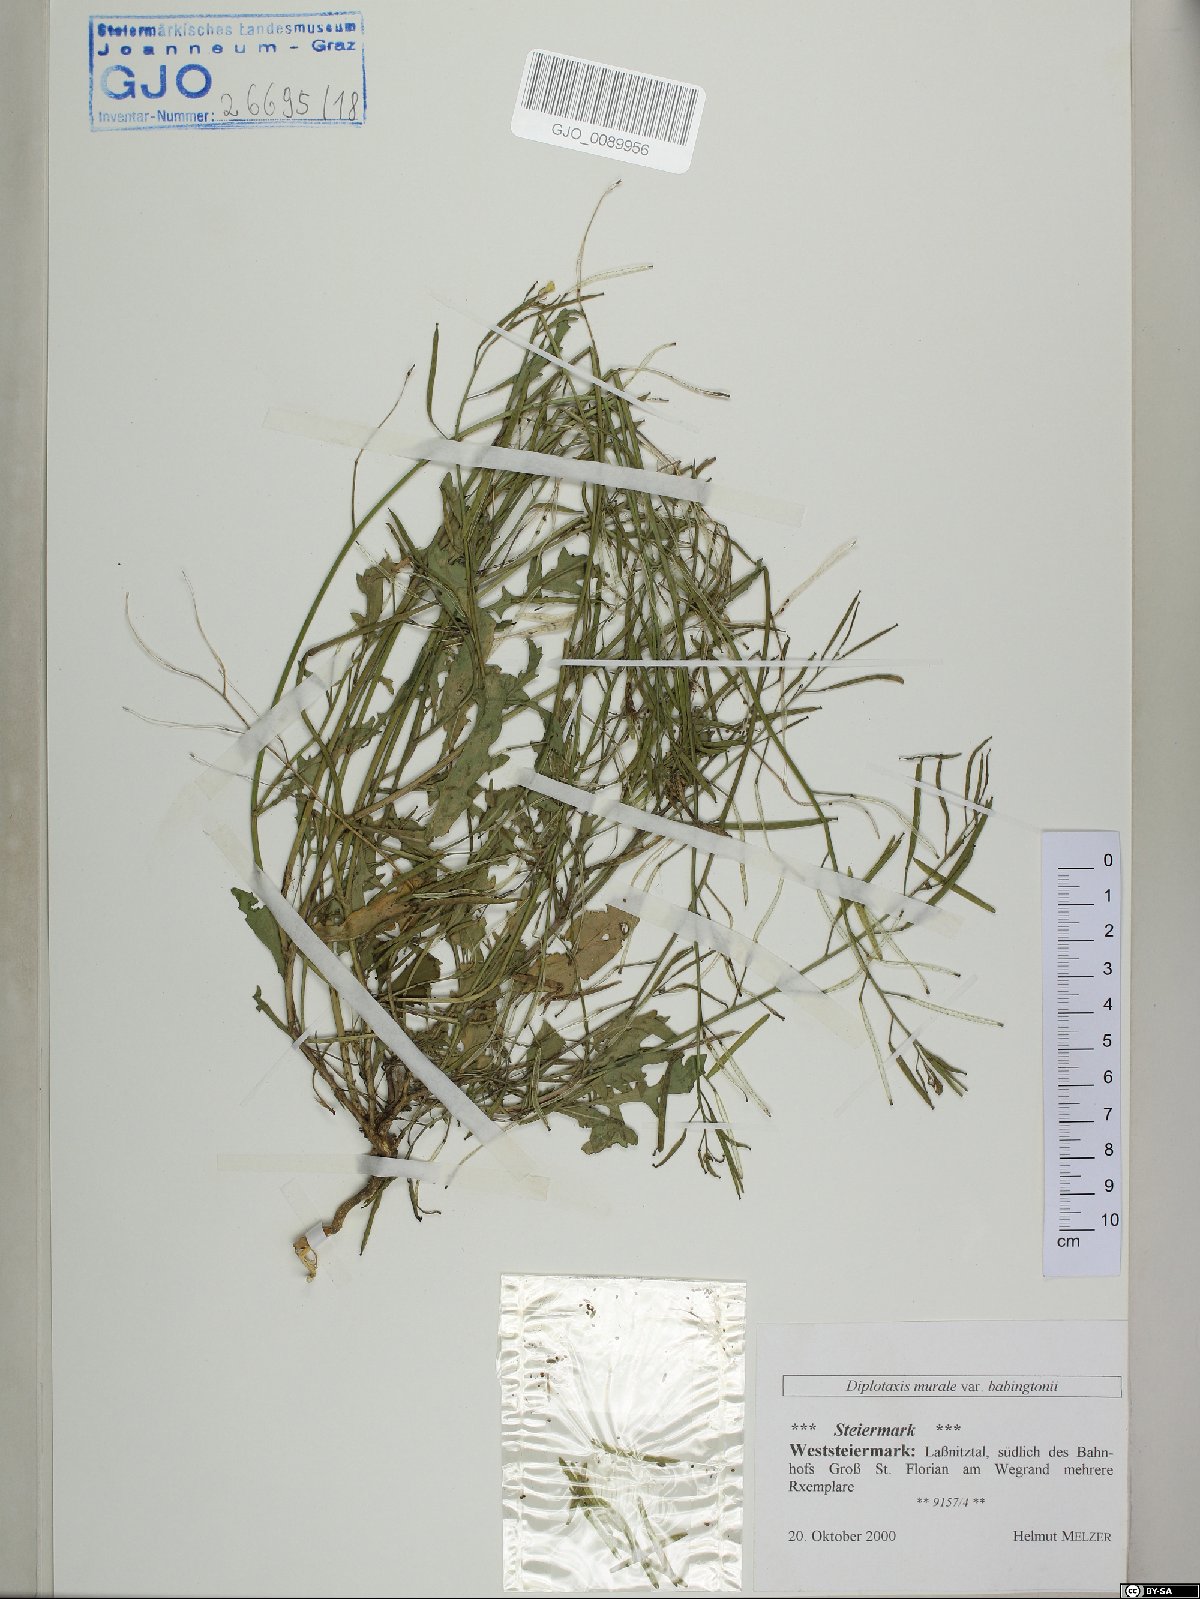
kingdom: Plantae
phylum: Tracheophyta
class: Magnoliopsida
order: Brassicales
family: Brassicaceae
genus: Diplotaxis
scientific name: Diplotaxis muralis
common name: Annual wall-rocket
